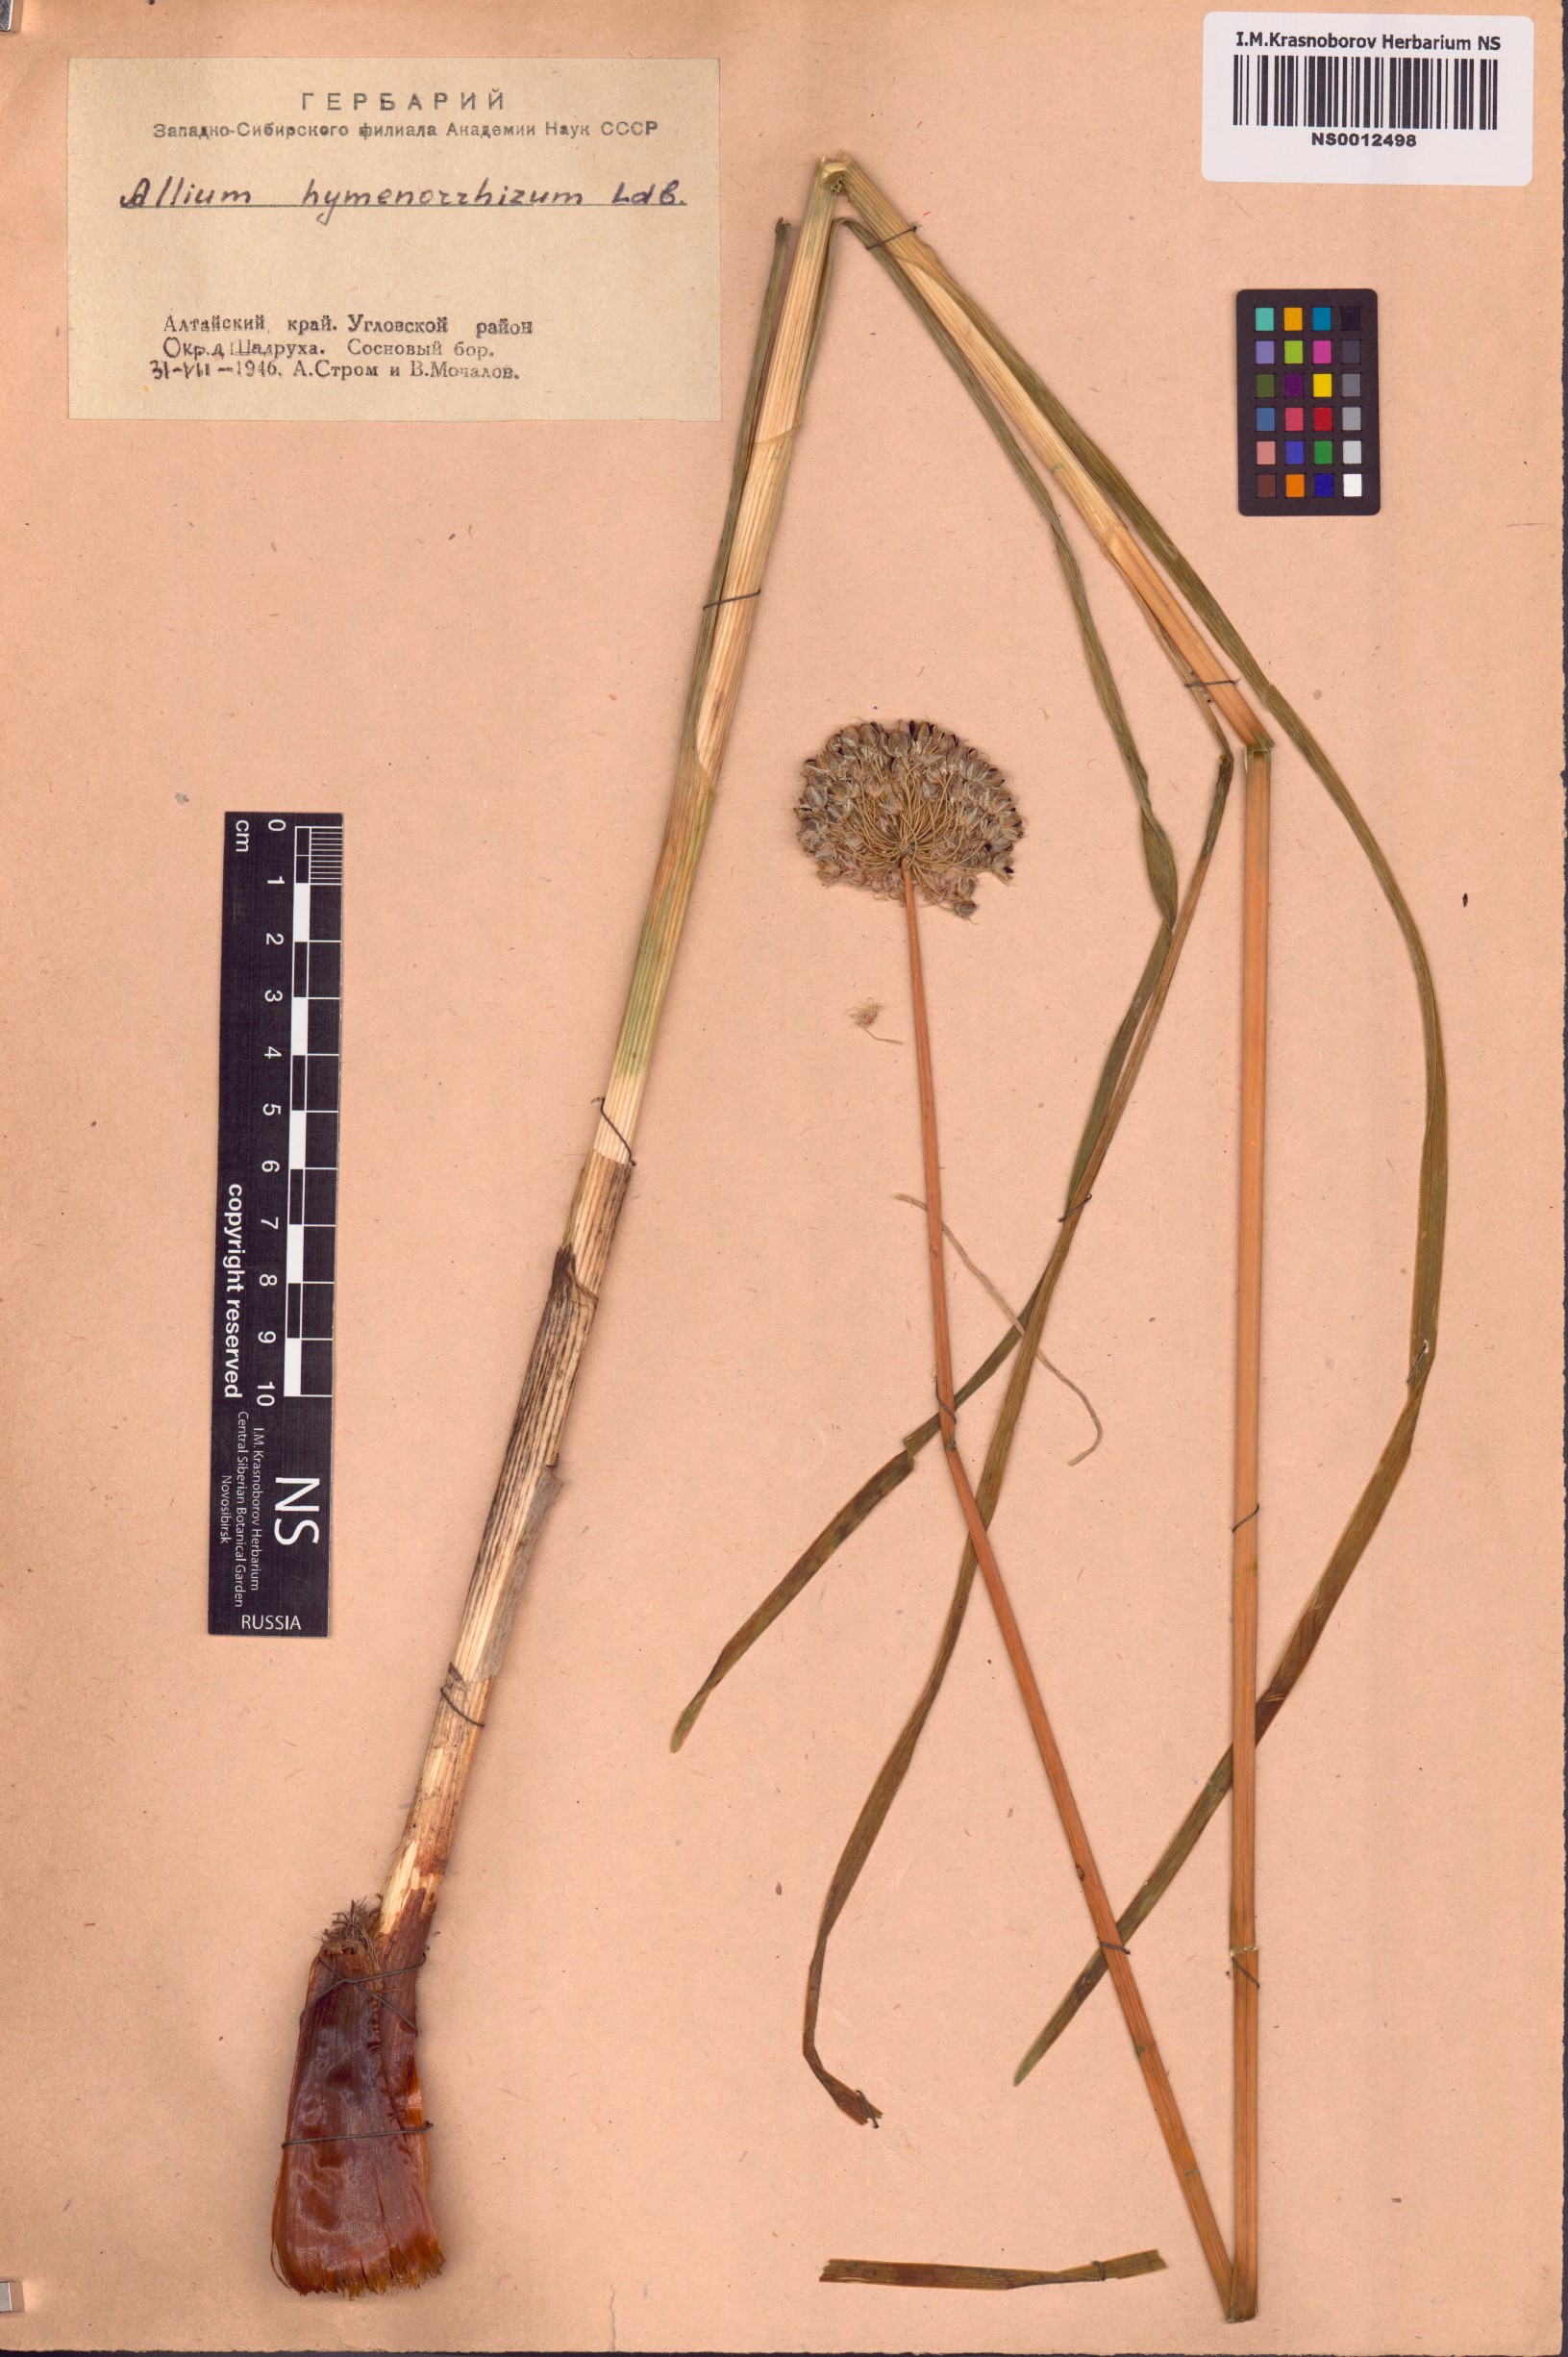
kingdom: Plantae
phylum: Tracheophyta
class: Liliopsida
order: Asparagales
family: Amaryllidaceae
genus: Allium
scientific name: Allium hymenorhizum
